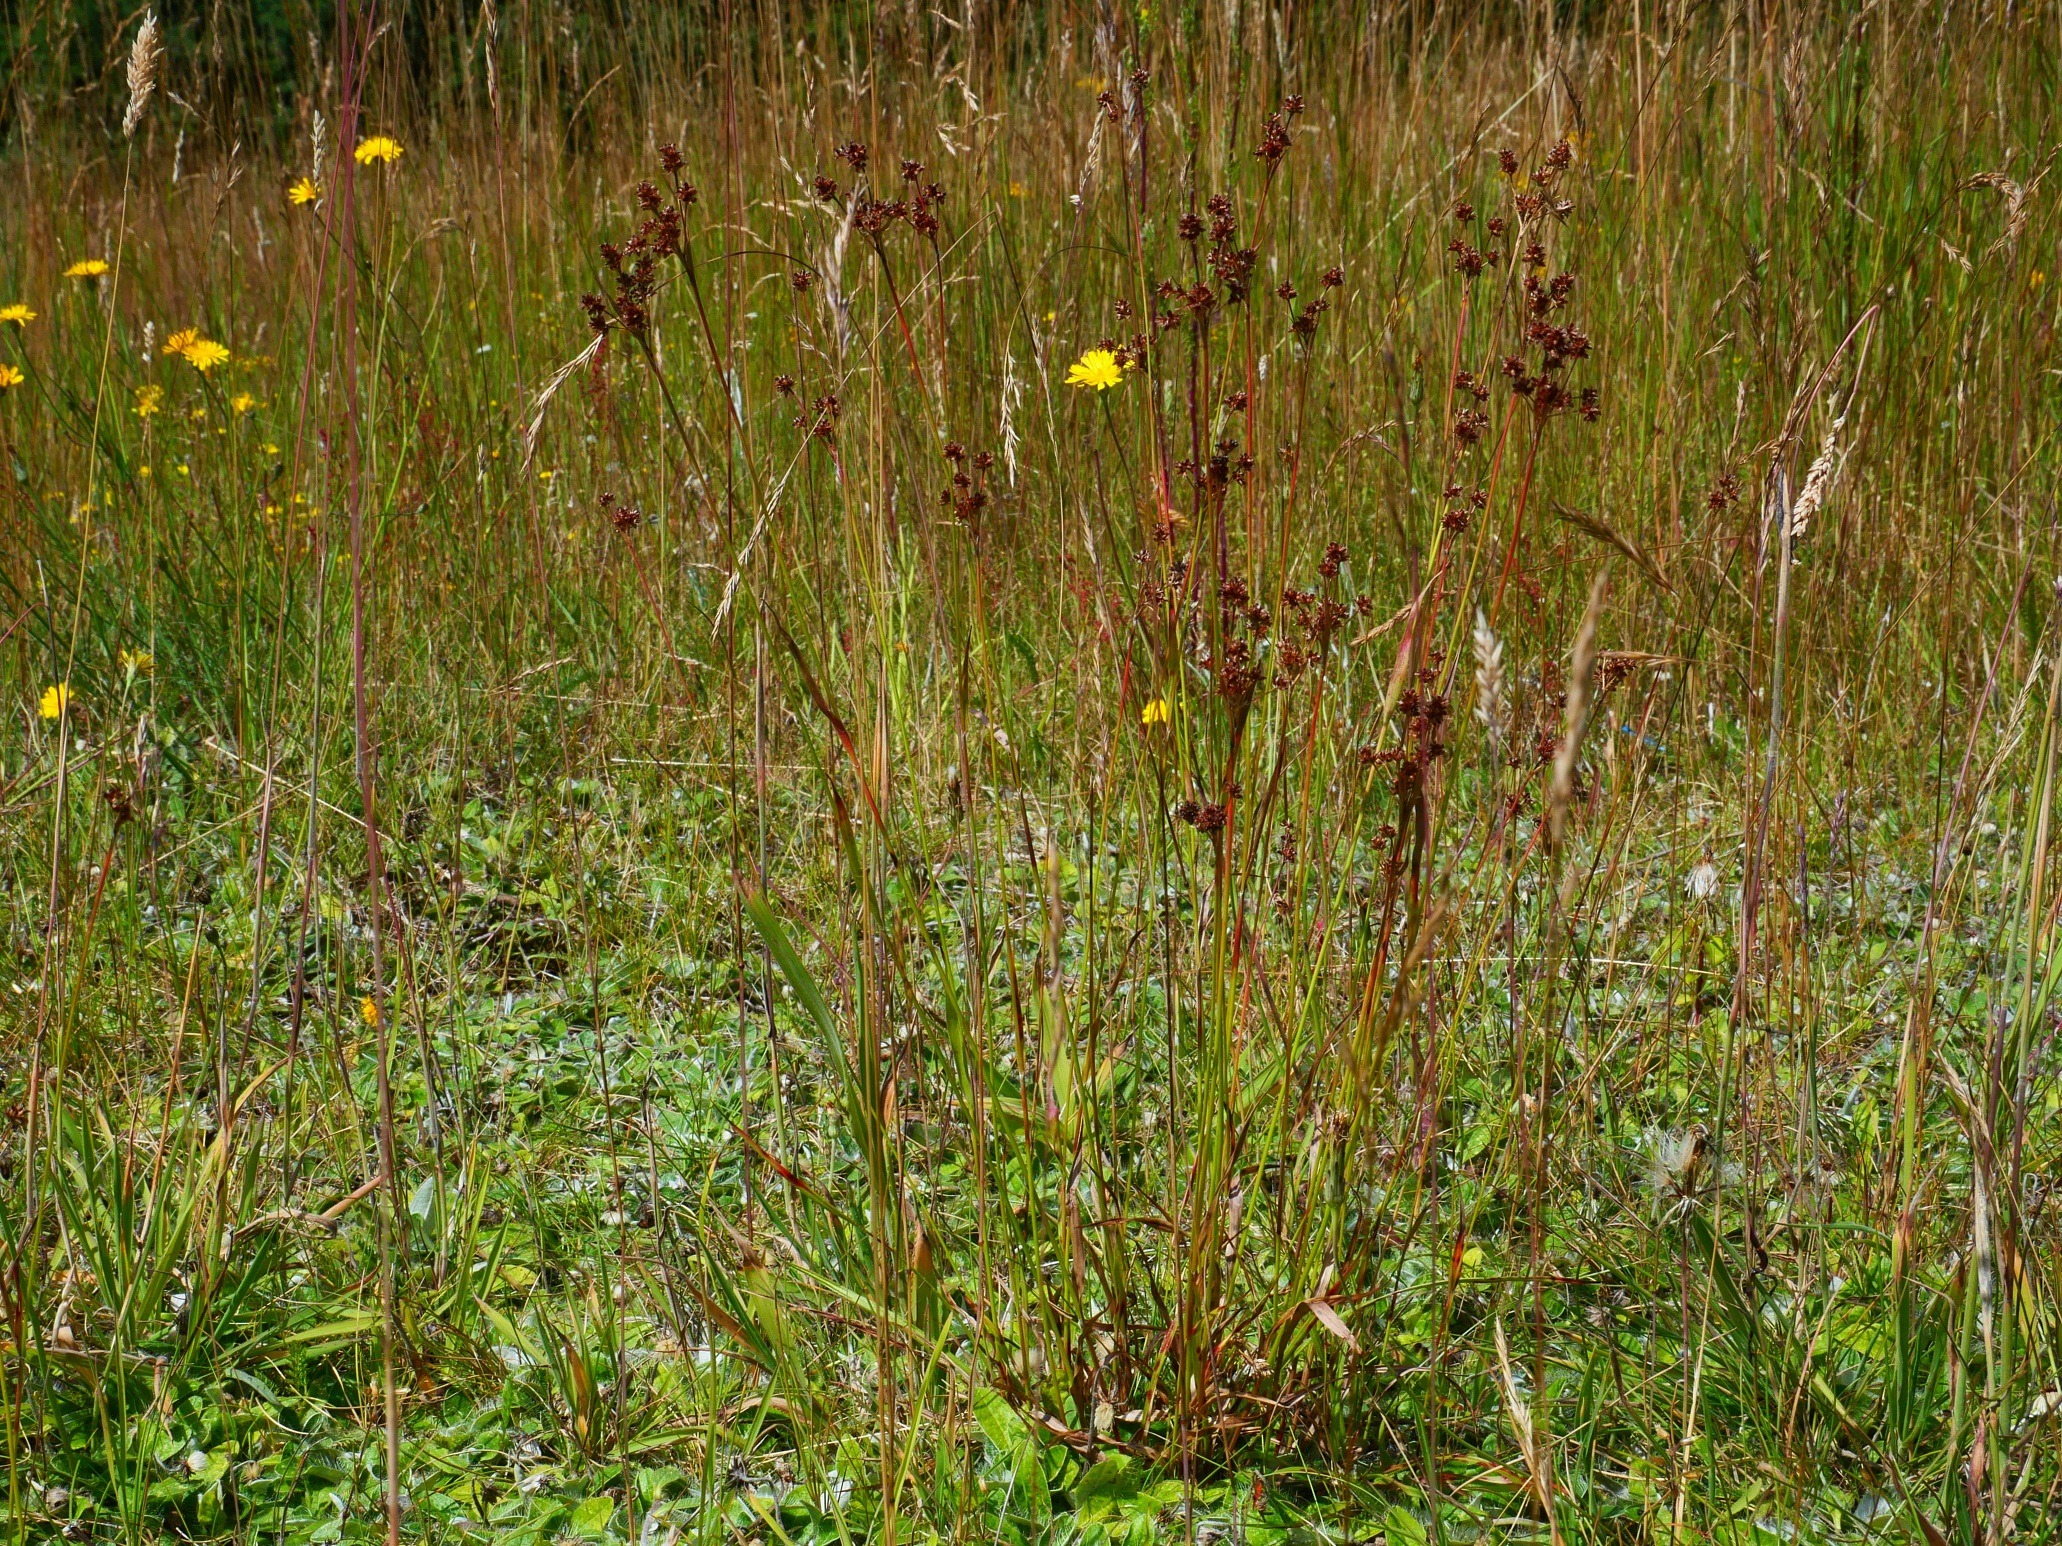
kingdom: Plantae
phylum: Tracheophyta
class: Liliopsida
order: Poales
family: Juncaceae
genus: Luzula
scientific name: Luzula multiflora
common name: Mangeblomstret frytle
